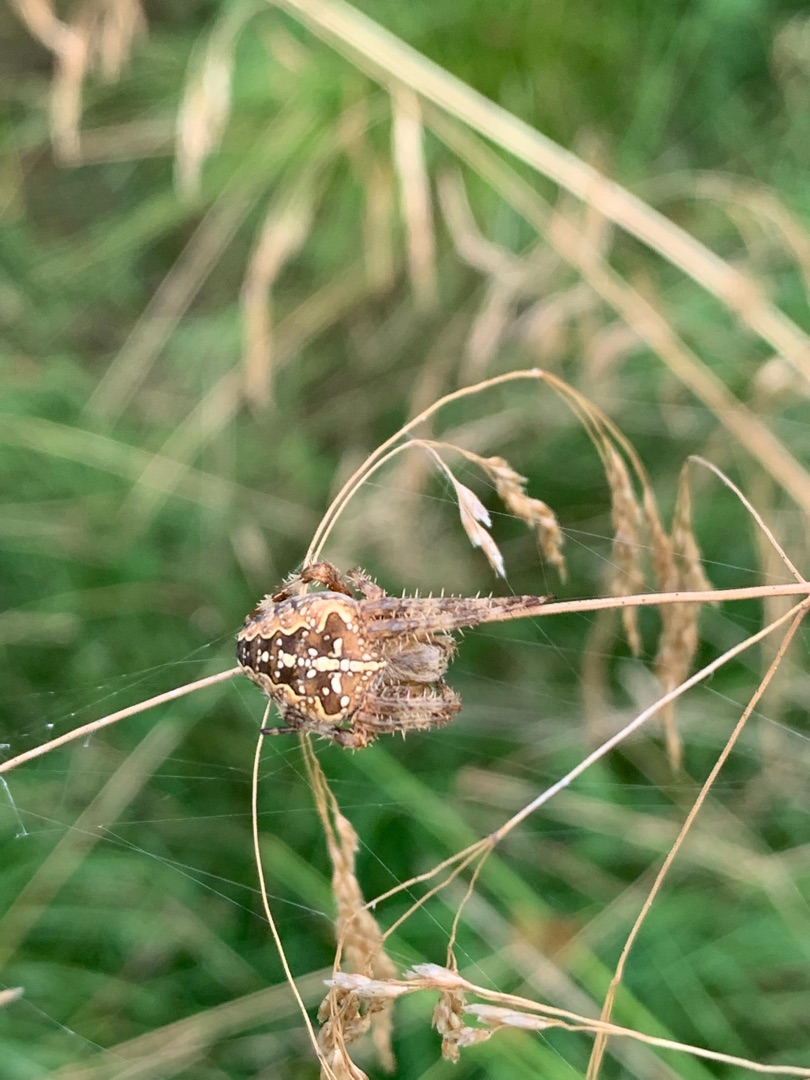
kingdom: Animalia
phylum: Arthropoda
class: Arachnida
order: Araneae
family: Araneidae
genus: Araneus
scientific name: Araneus diadematus
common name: Korsedderkop
